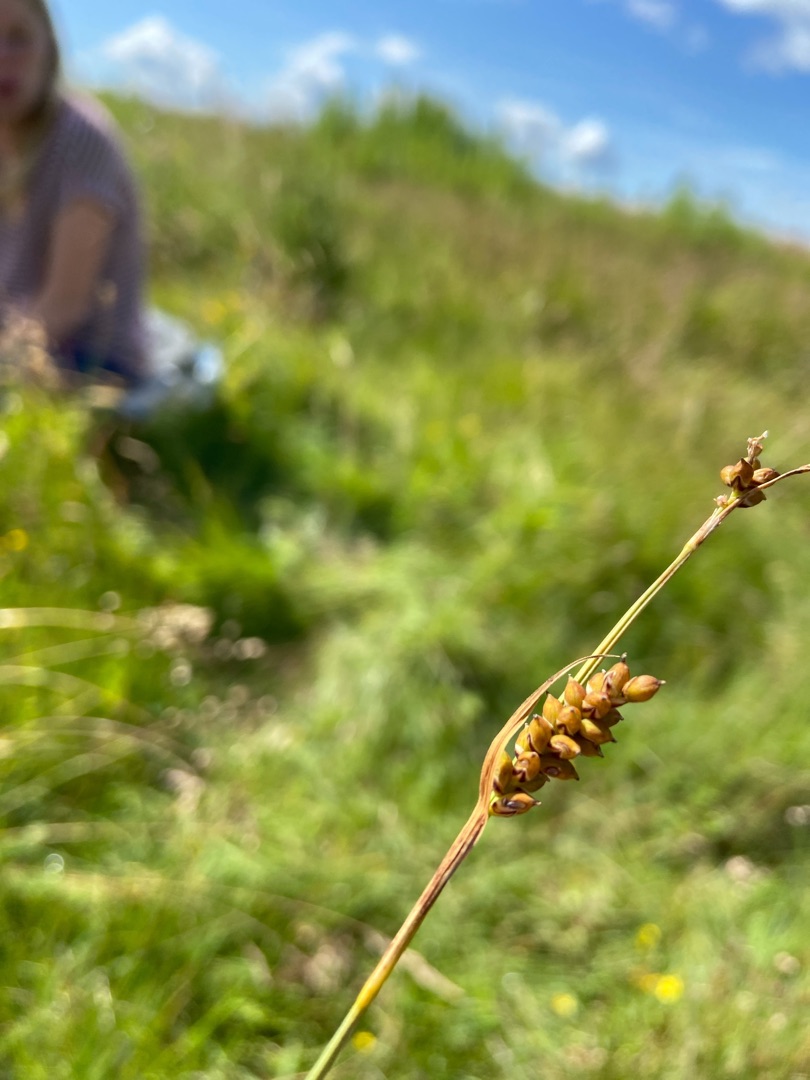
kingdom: Plantae
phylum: Tracheophyta
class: Liliopsida
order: Poales
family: Cyperaceae
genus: Carex
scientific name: Carex panicea
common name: Hirse-star
